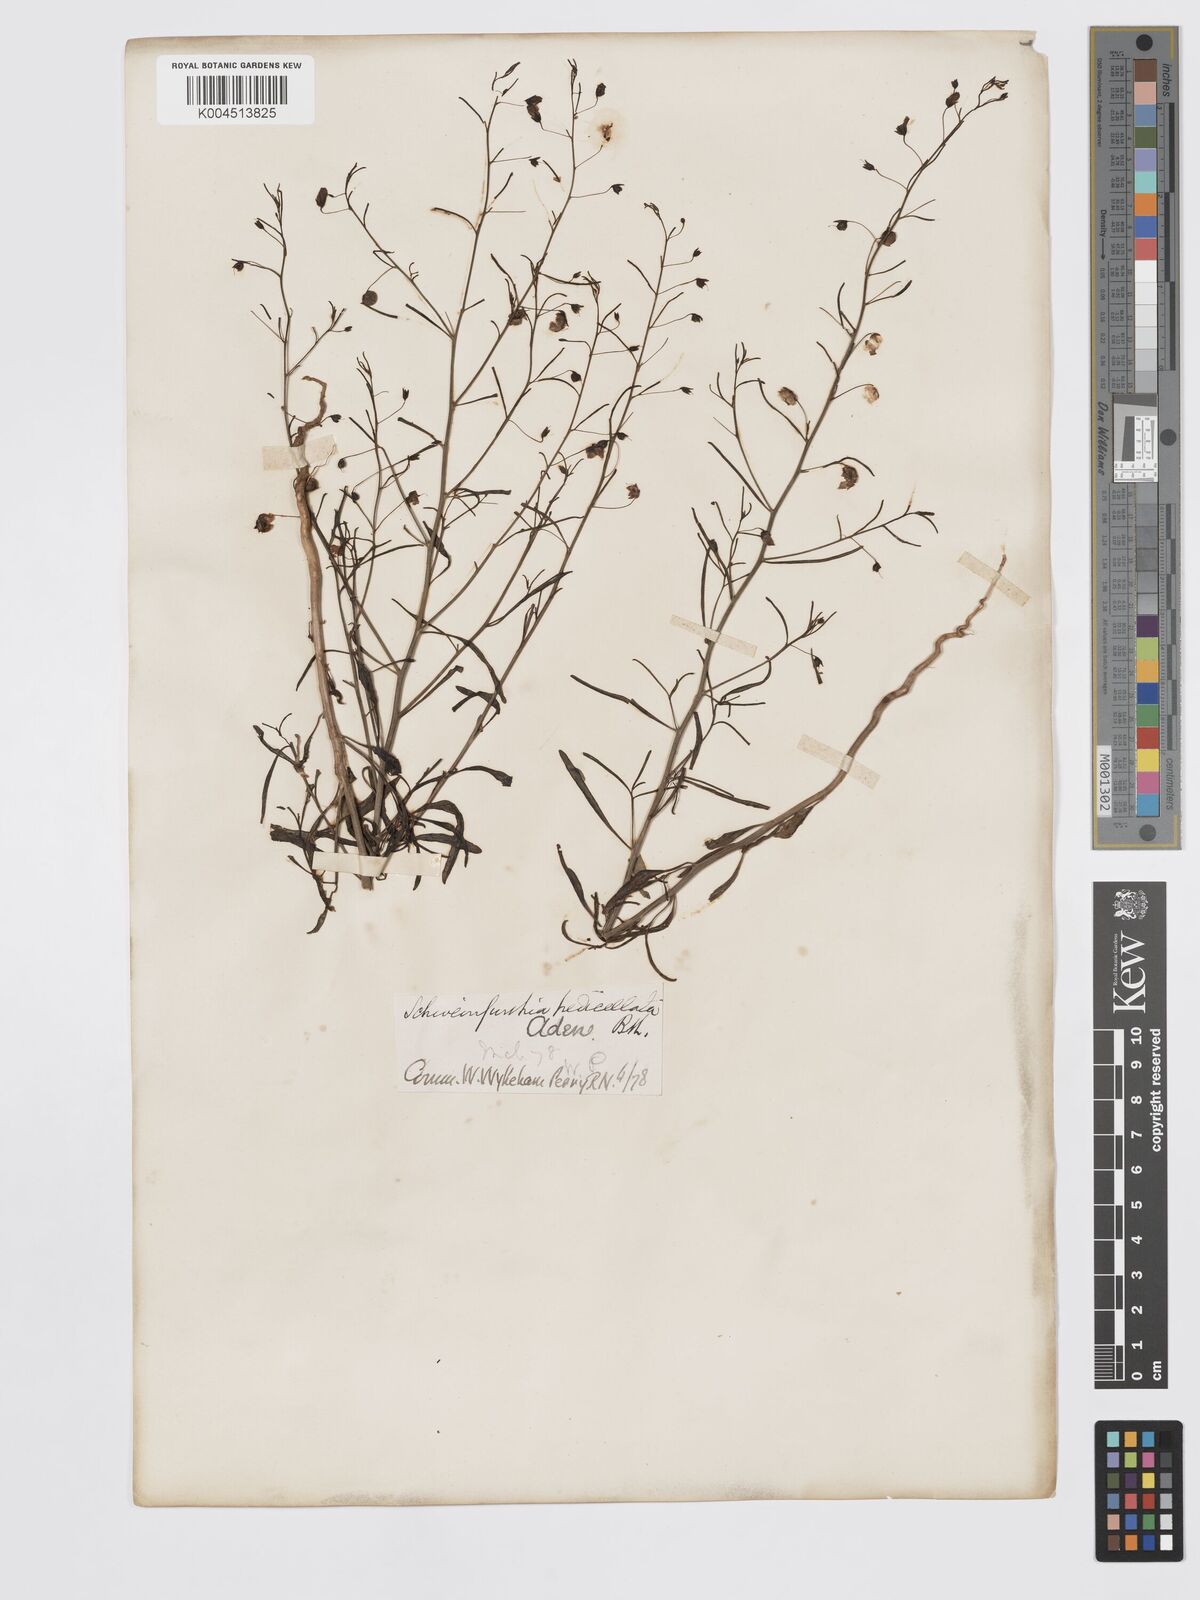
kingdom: Plantae
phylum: Tracheophyta
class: Magnoliopsida
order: Lamiales
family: Plantaginaceae
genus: Schweinfurthia
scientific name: Schweinfurthia pedicellata
